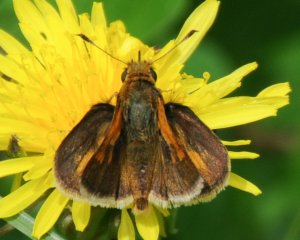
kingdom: Animalia
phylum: Arthropoda
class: Insecta
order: Lepidoptera
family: Hesperiidae
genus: Polites
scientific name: Polites themistocles
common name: Tawny-edged Skipper
